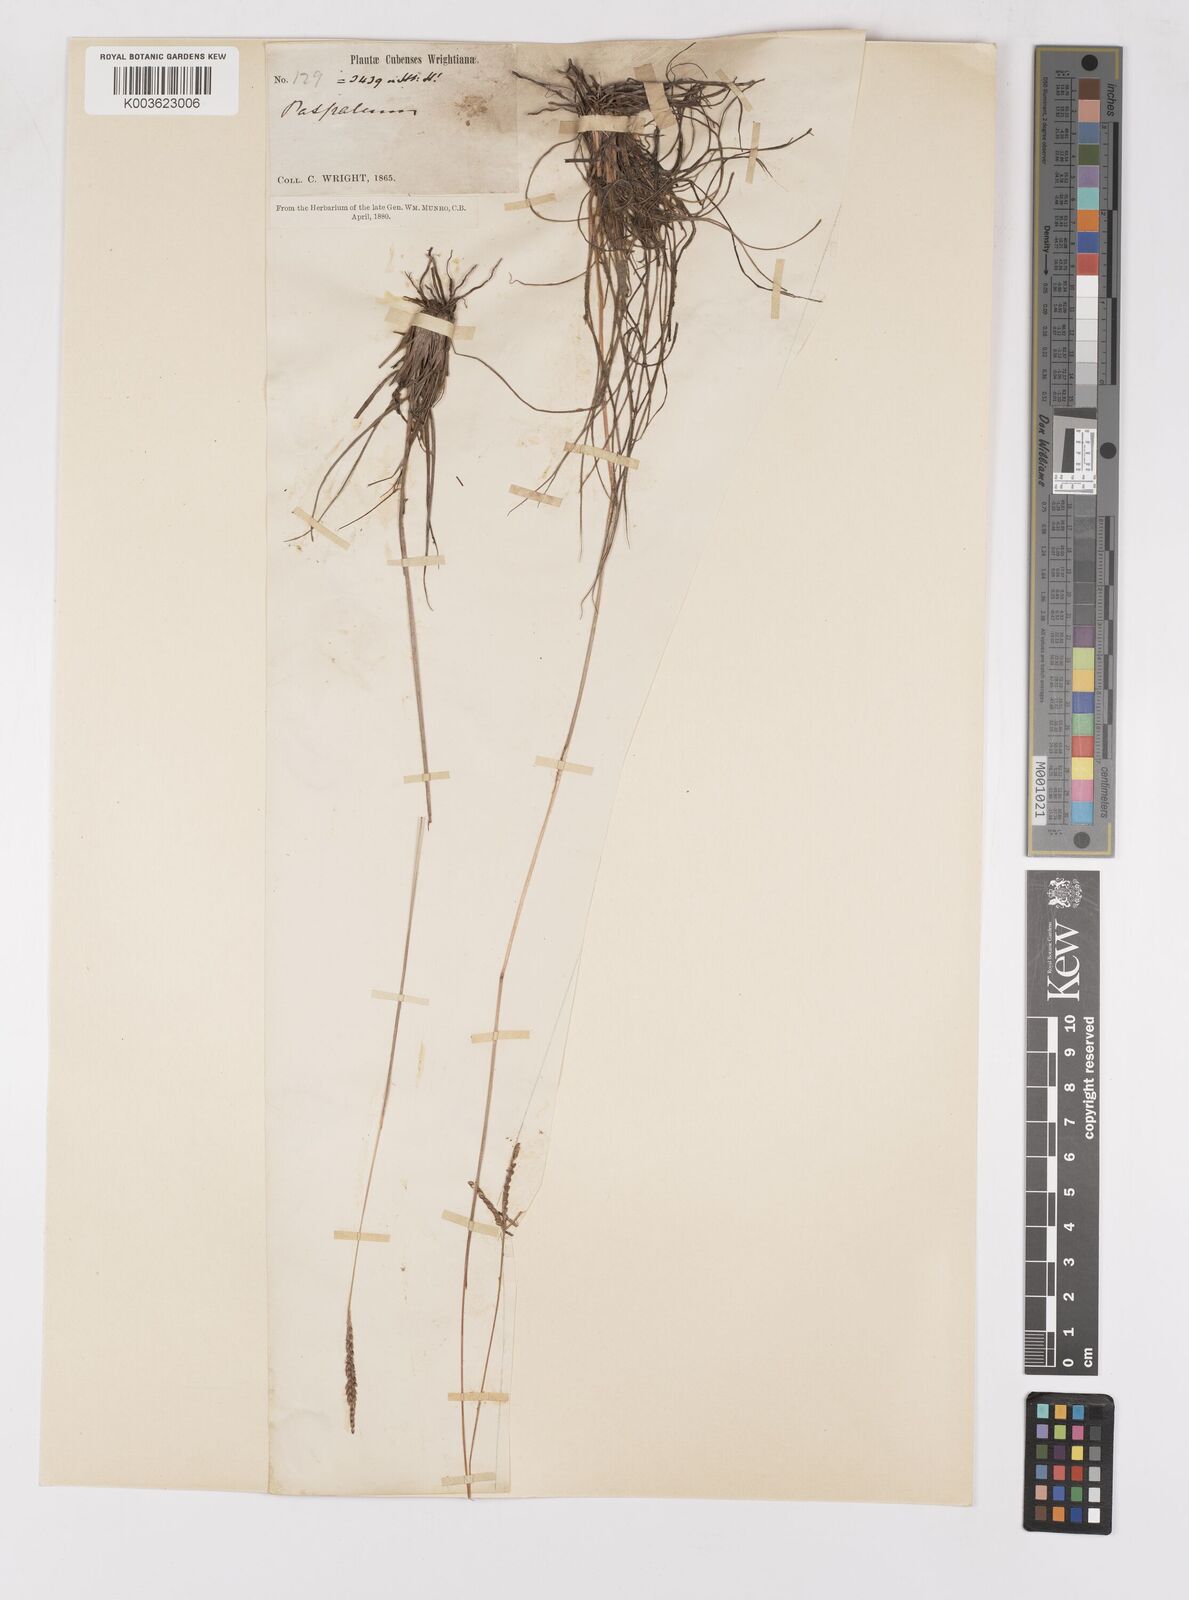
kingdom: Plantae
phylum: Tracheophyta
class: Liliopsida
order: Poales
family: Poaceae
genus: Paspalum
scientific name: Paspalum pulchellum
